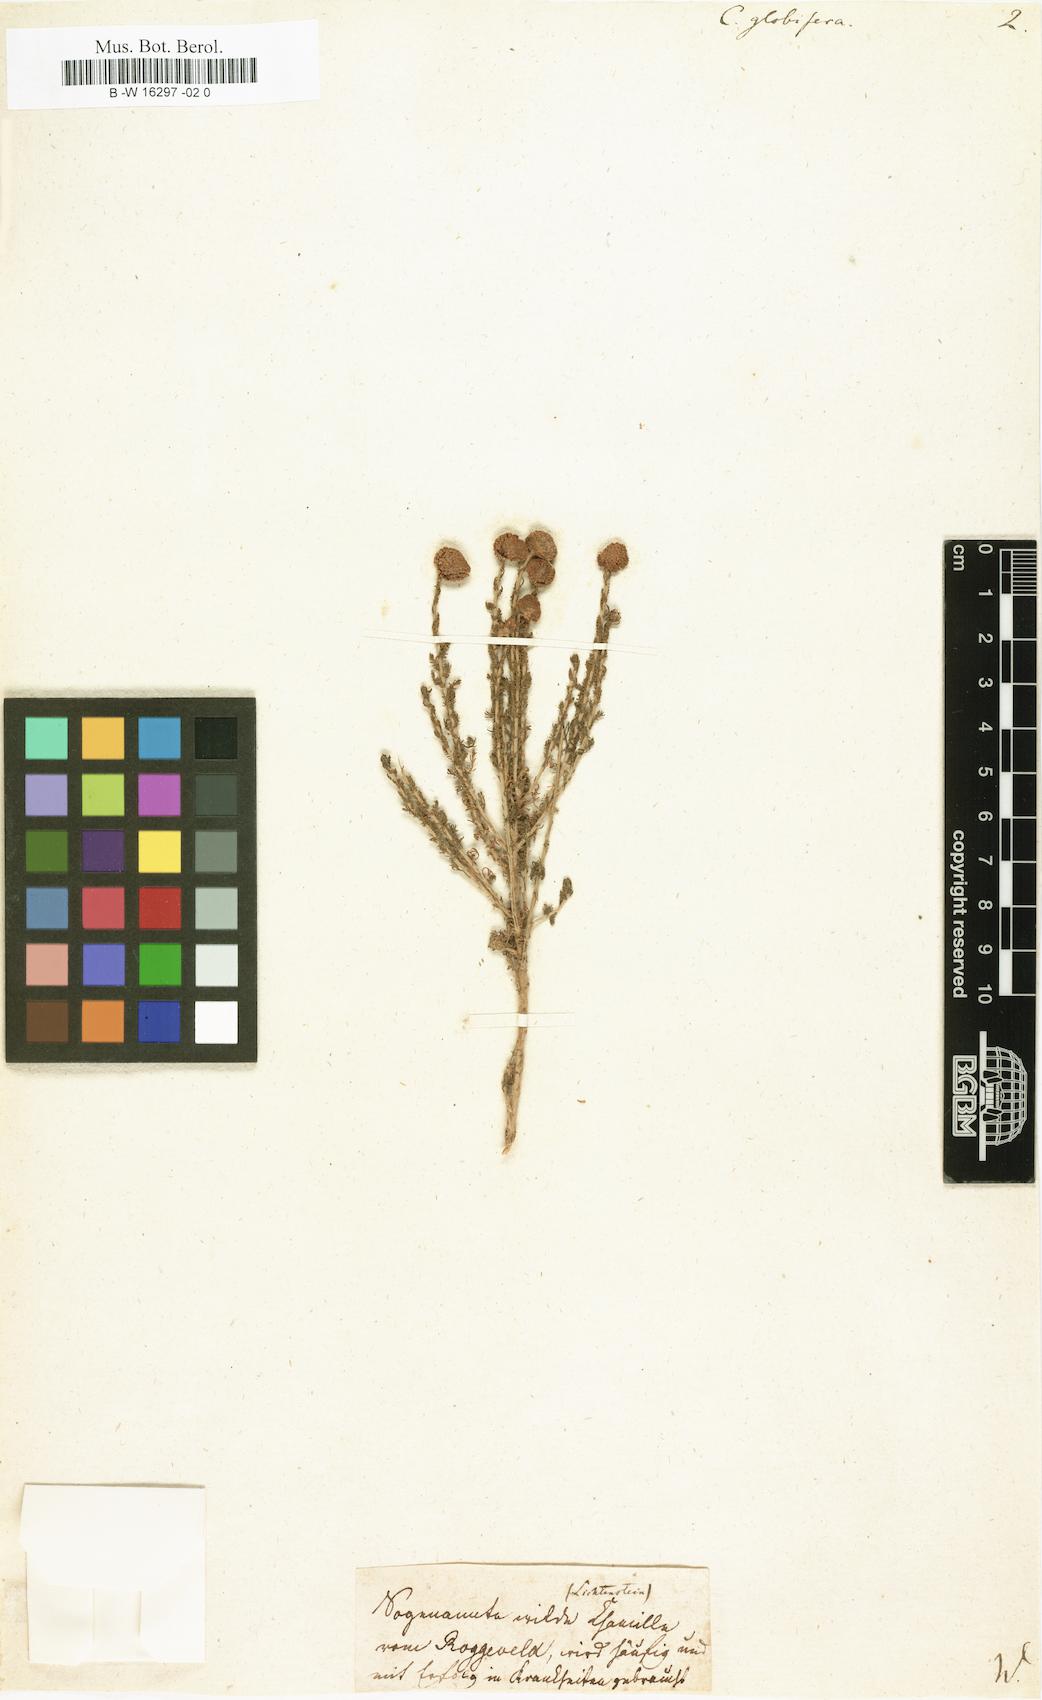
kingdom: Plantae
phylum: Tracheophyta
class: Magnoliopsida
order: Asterales
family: Asteraceae
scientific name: Asteraceae
